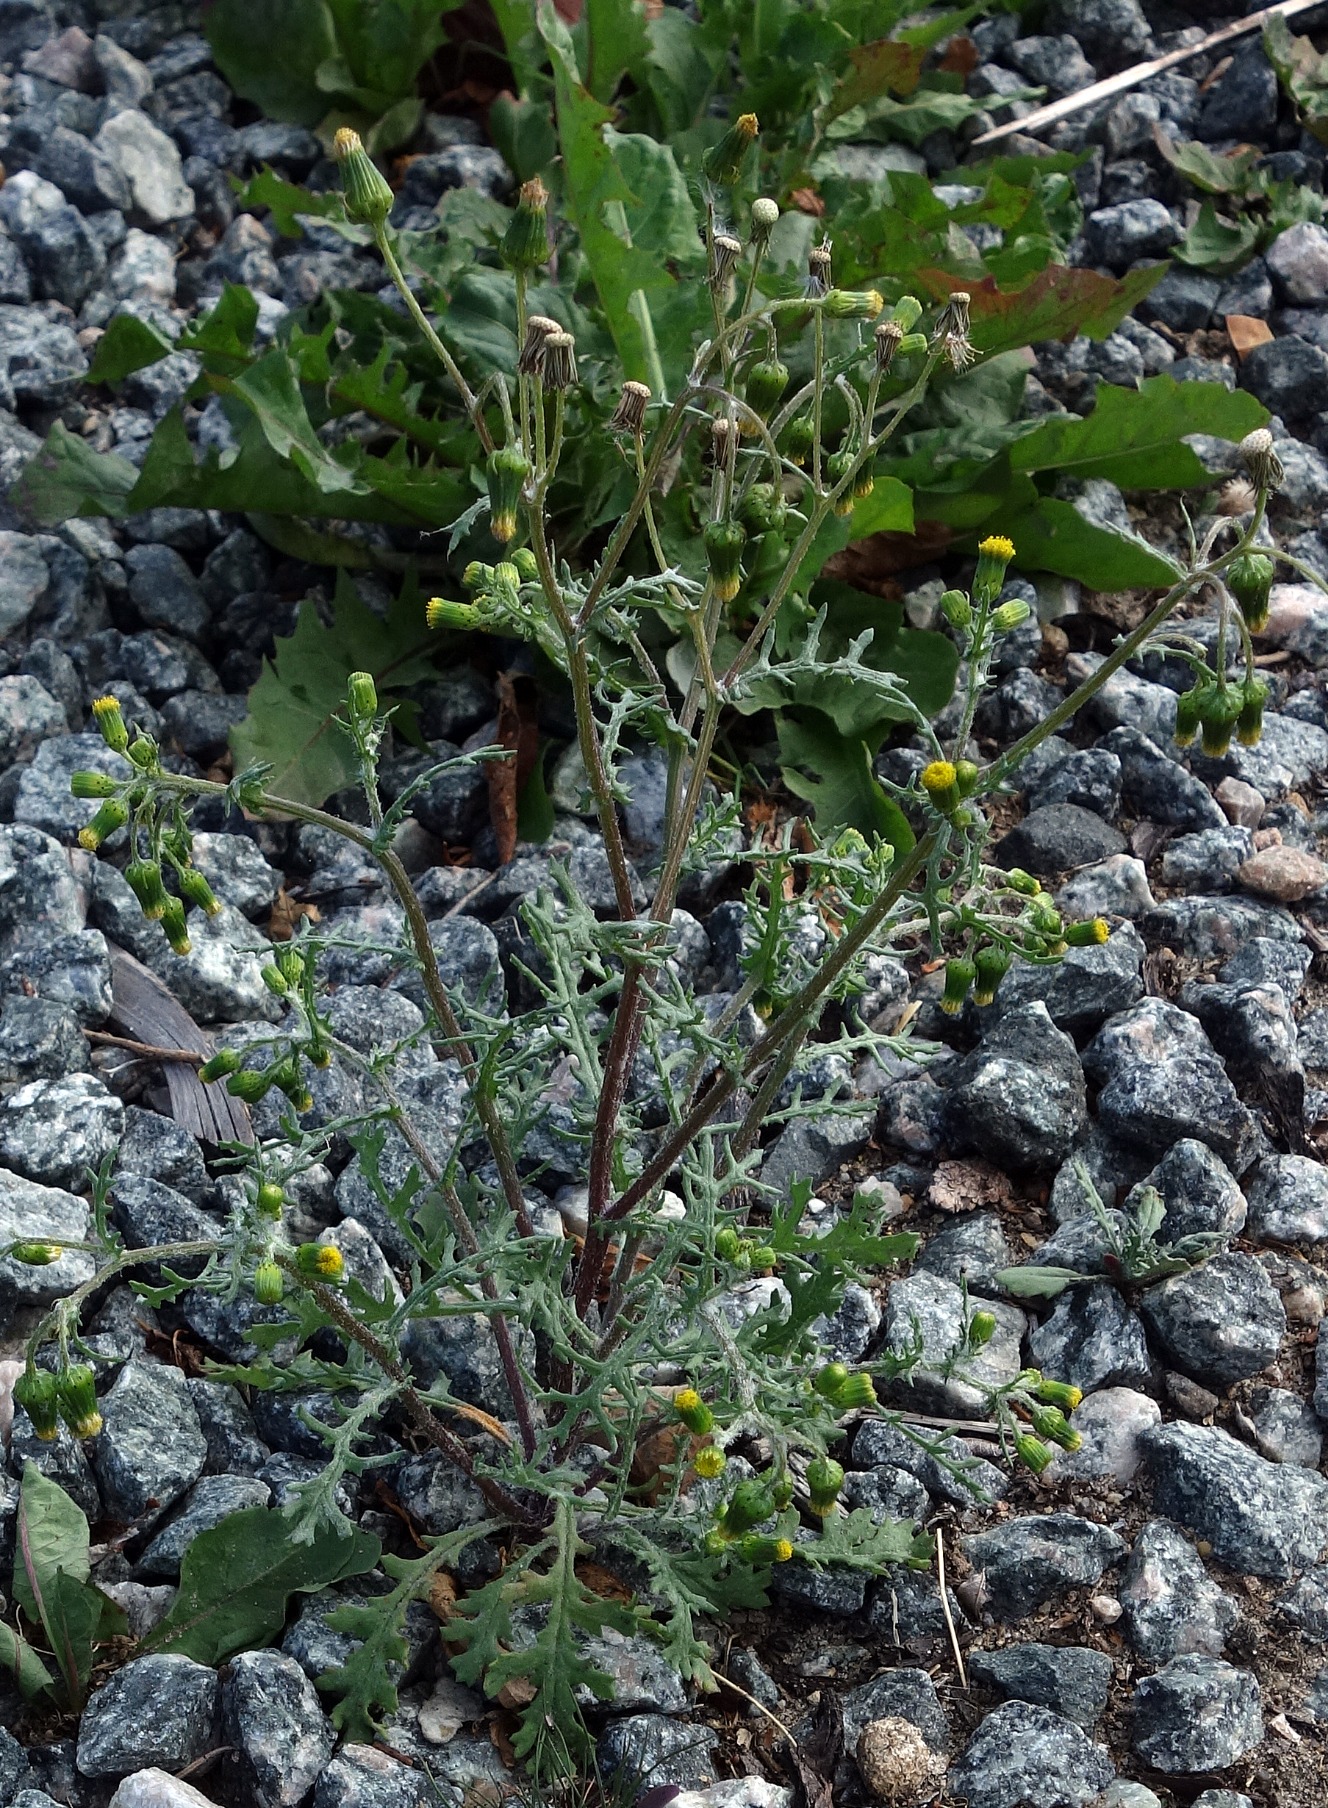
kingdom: Plantae
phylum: Tracheophyta
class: Magnoliopsida
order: Asterales
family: Asteraceae
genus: Senecio
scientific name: Senecio vulgaris
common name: Almindelig brandbæger
